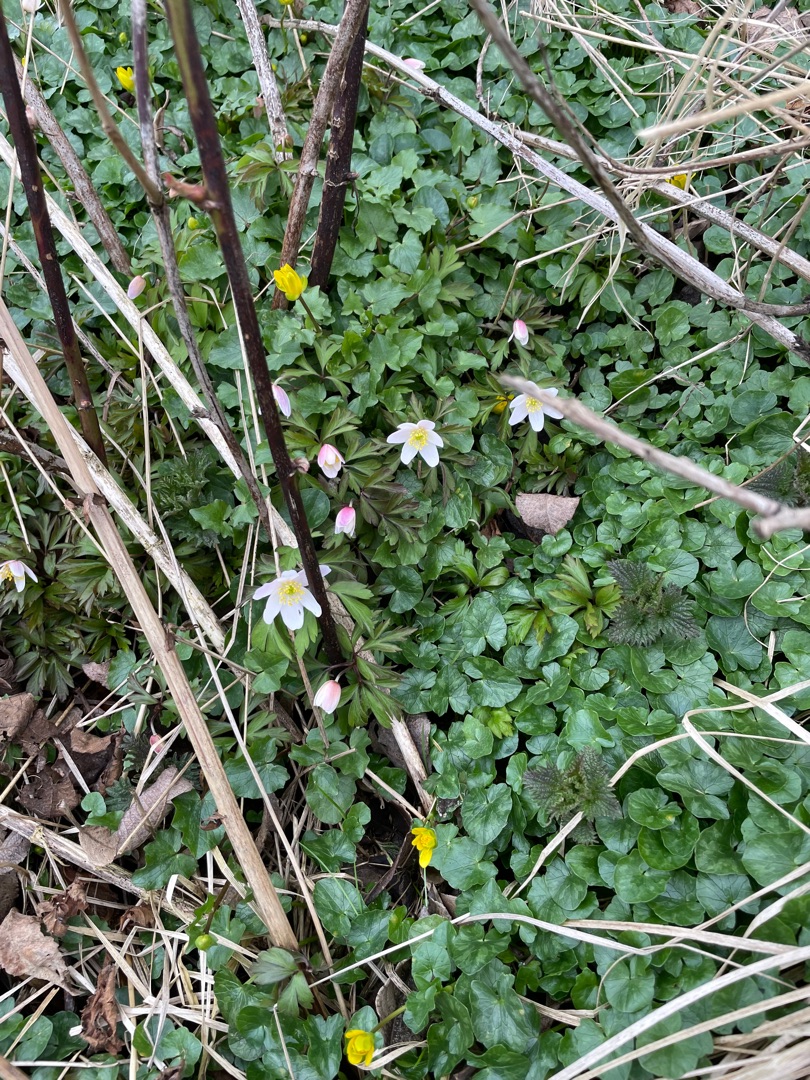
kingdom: Plantae
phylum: Tracheophyta
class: Magnoliopsida
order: Ranunculales
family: Ranunculaceae
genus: Anemone
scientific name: Anemone nemorosa
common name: Hvid anemone
